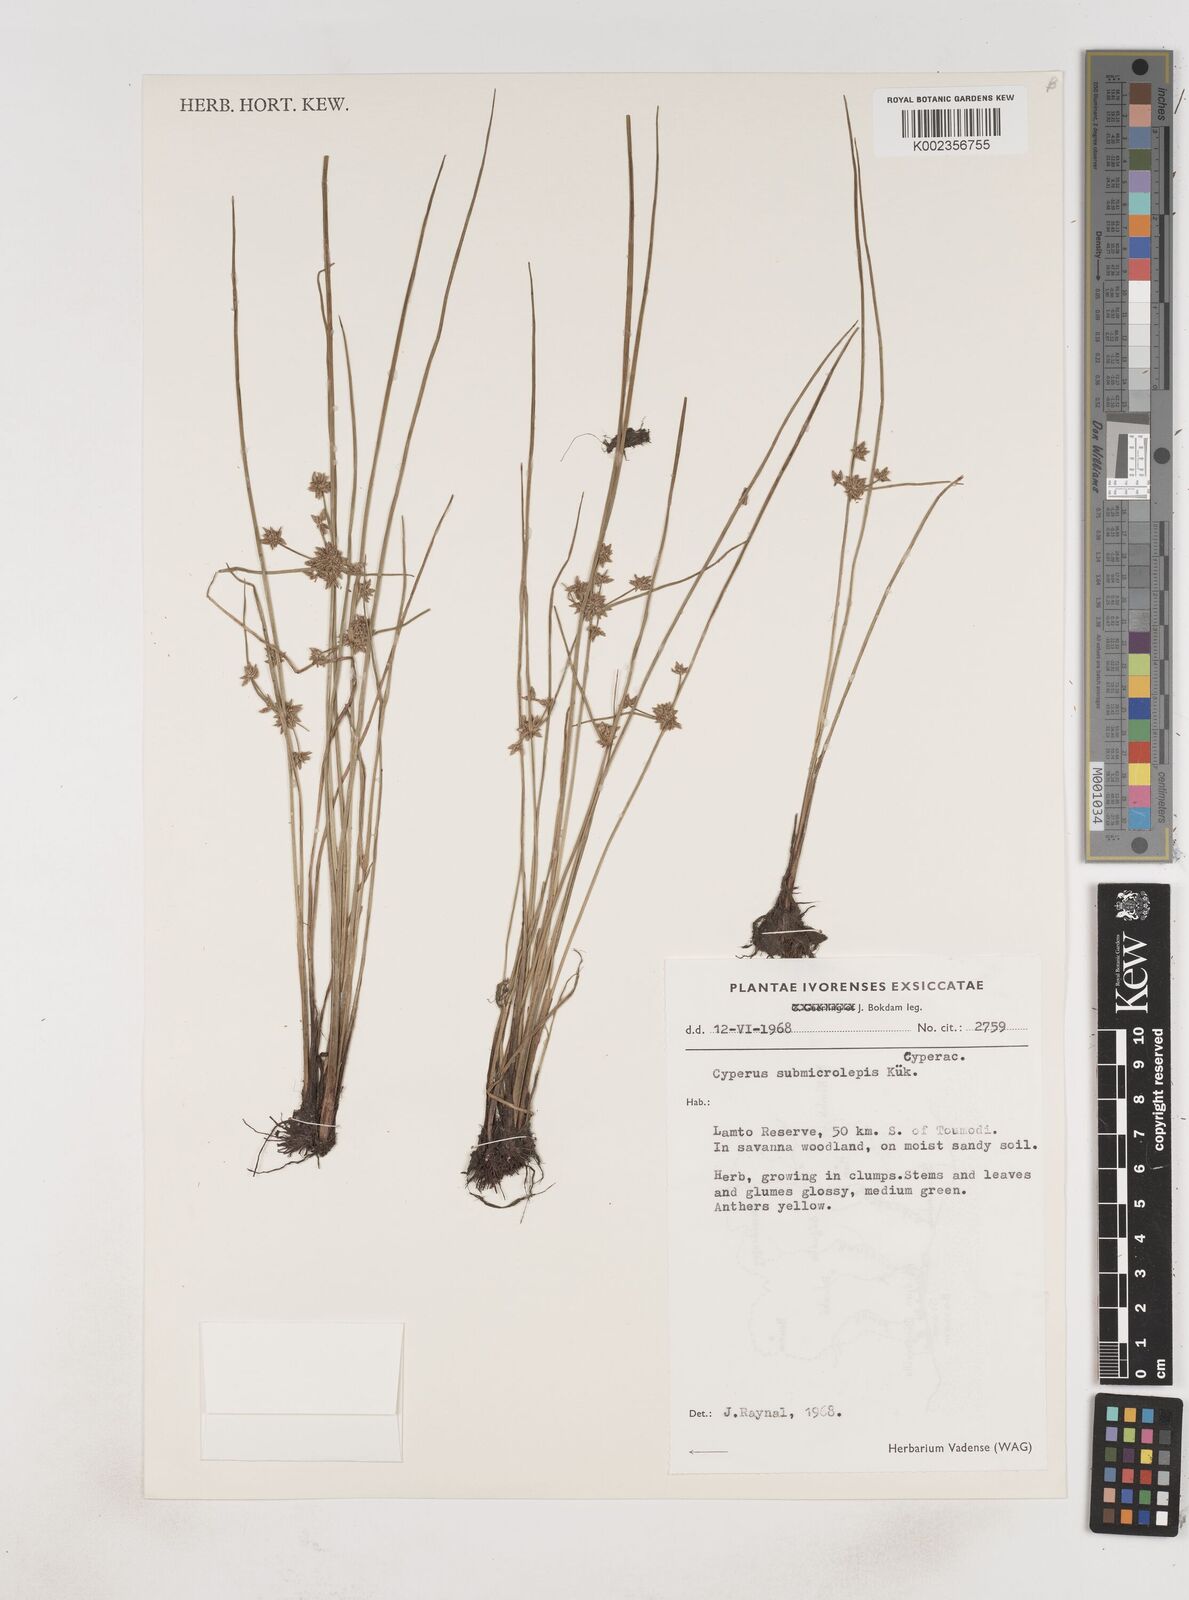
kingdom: Plantae
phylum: Tracheophyta
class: Liliopsida
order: Poales
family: Cyperaceae
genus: Cyperus
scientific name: Cyperus submicrolepis
